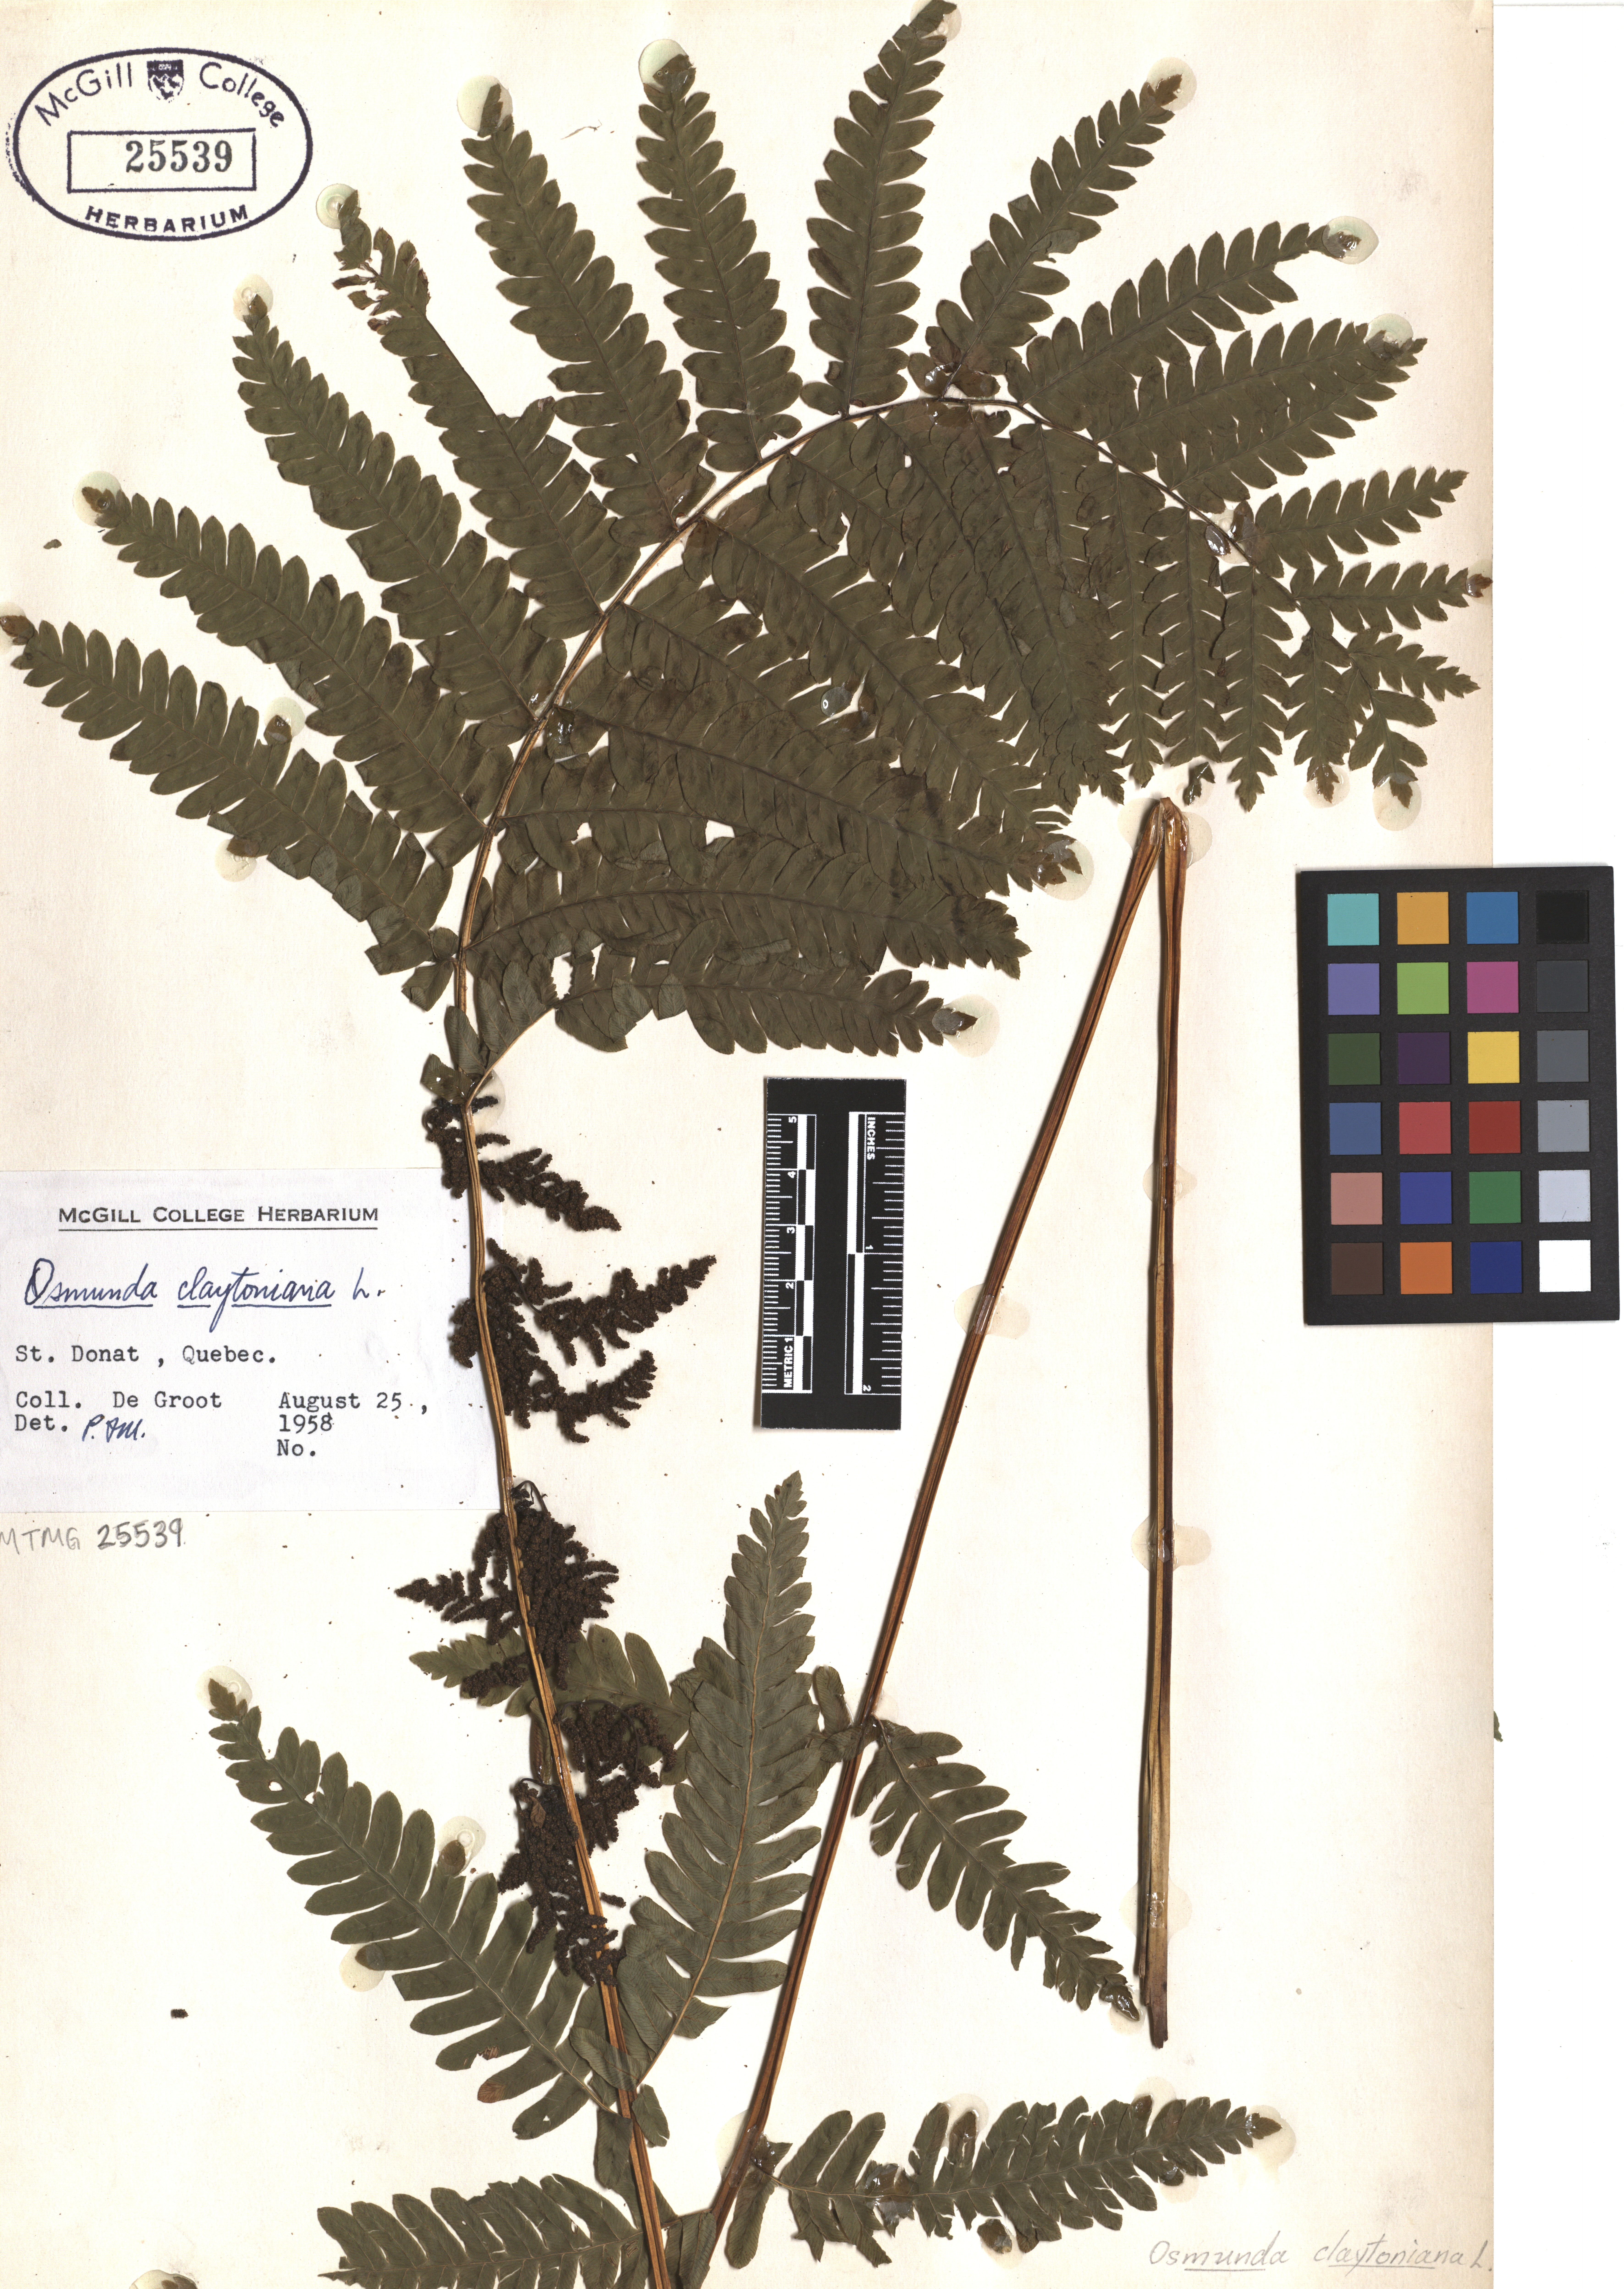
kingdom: Plantae
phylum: Tracheophyta
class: Polypodiopsida
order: Osmundales
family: Osmundaceae
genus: Claytosmunda
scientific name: Claytosmunda claytoniana
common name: Clayton's fern
